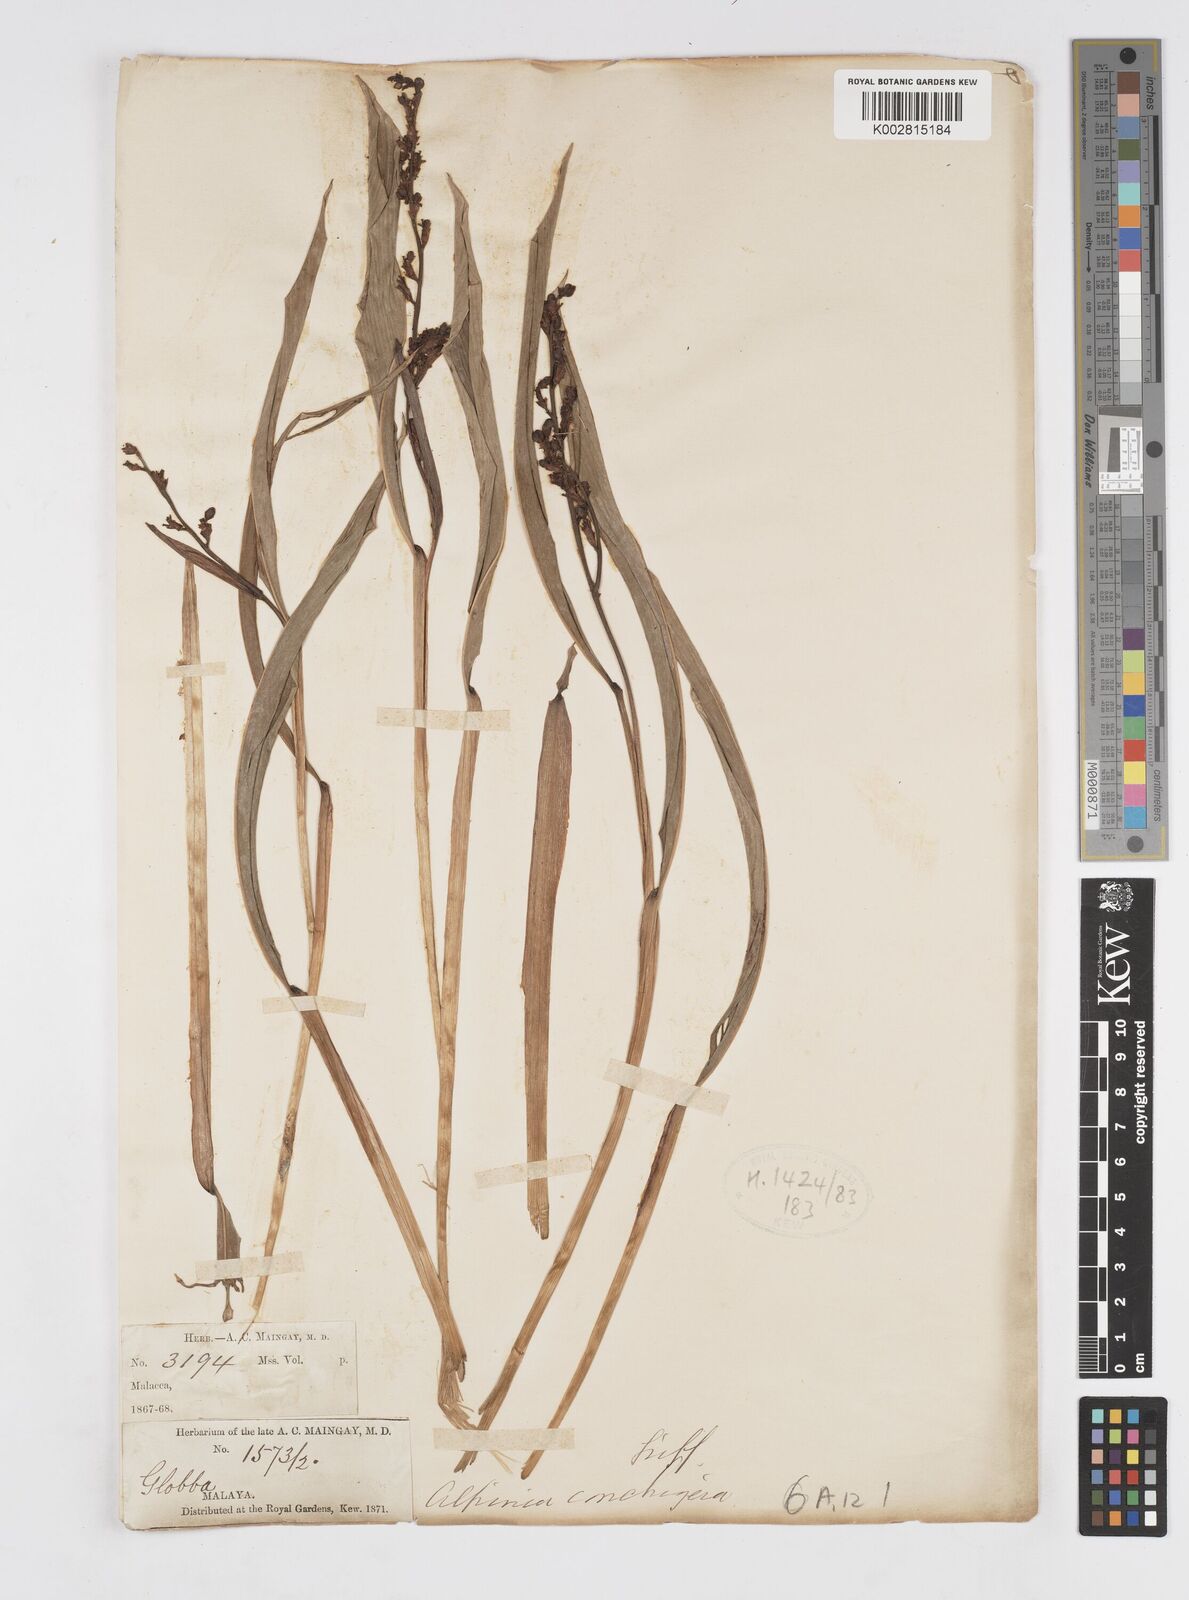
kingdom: Plantae
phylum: Tracheophyta
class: Liliopsida
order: Zingiberales
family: Zingiberaceae
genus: Alpinia
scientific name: Alpinia conchigera
